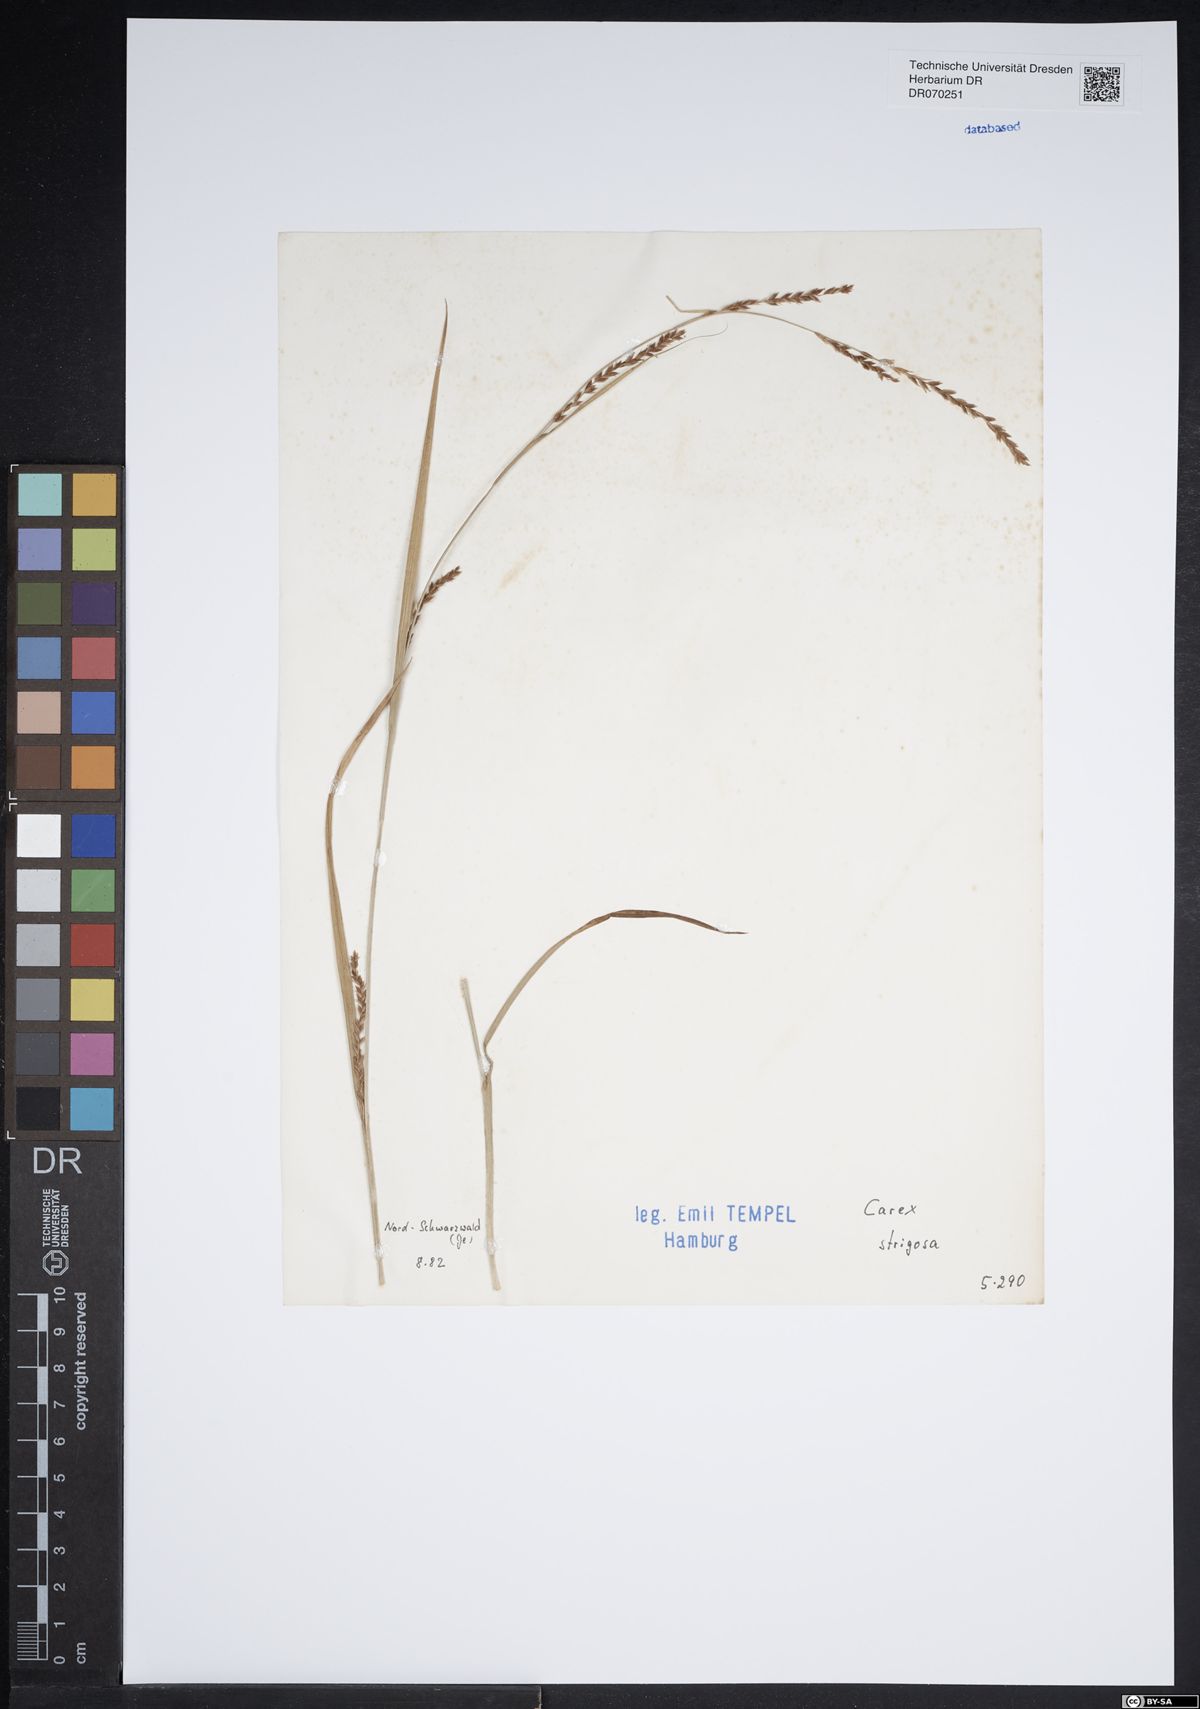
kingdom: Plantae
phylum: Tracheophyta
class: Liliopsida
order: Poales
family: Cyperaceae
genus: Carex
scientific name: Carex strigosa
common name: Thin-spiked wood-sedge
